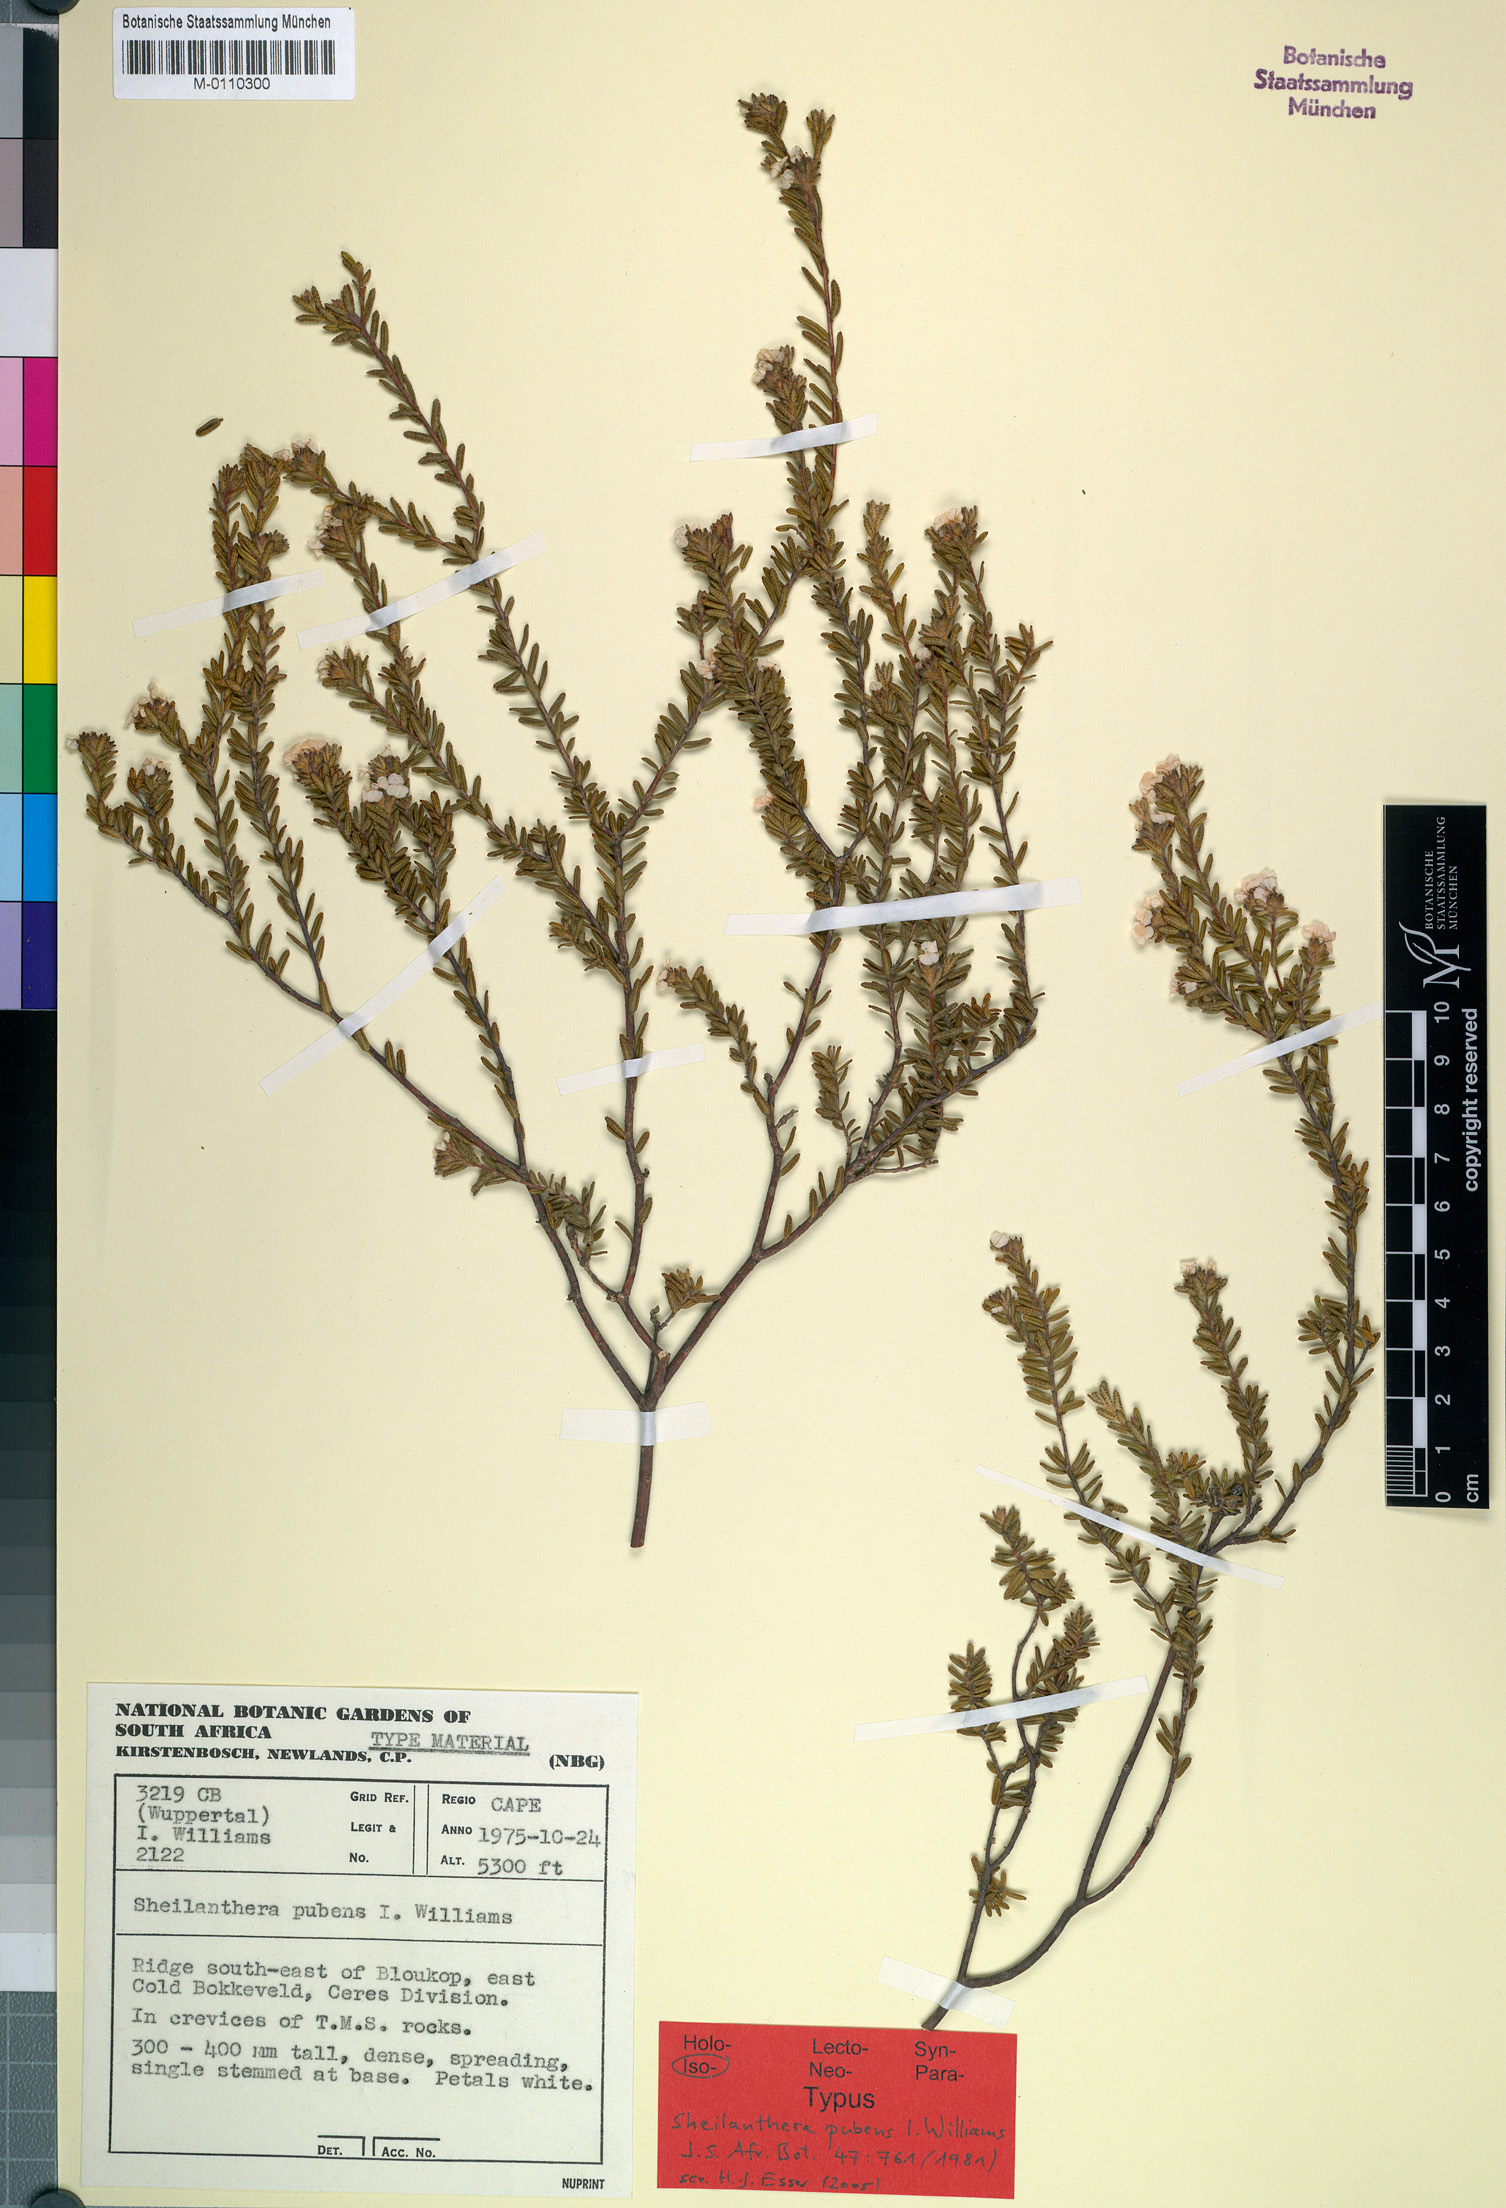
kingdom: Plantae
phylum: Tracheophyta
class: Magnoliopsida
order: Sapindales
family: Rutaceae
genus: Sheilanthera
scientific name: Sheilanthera pubens
